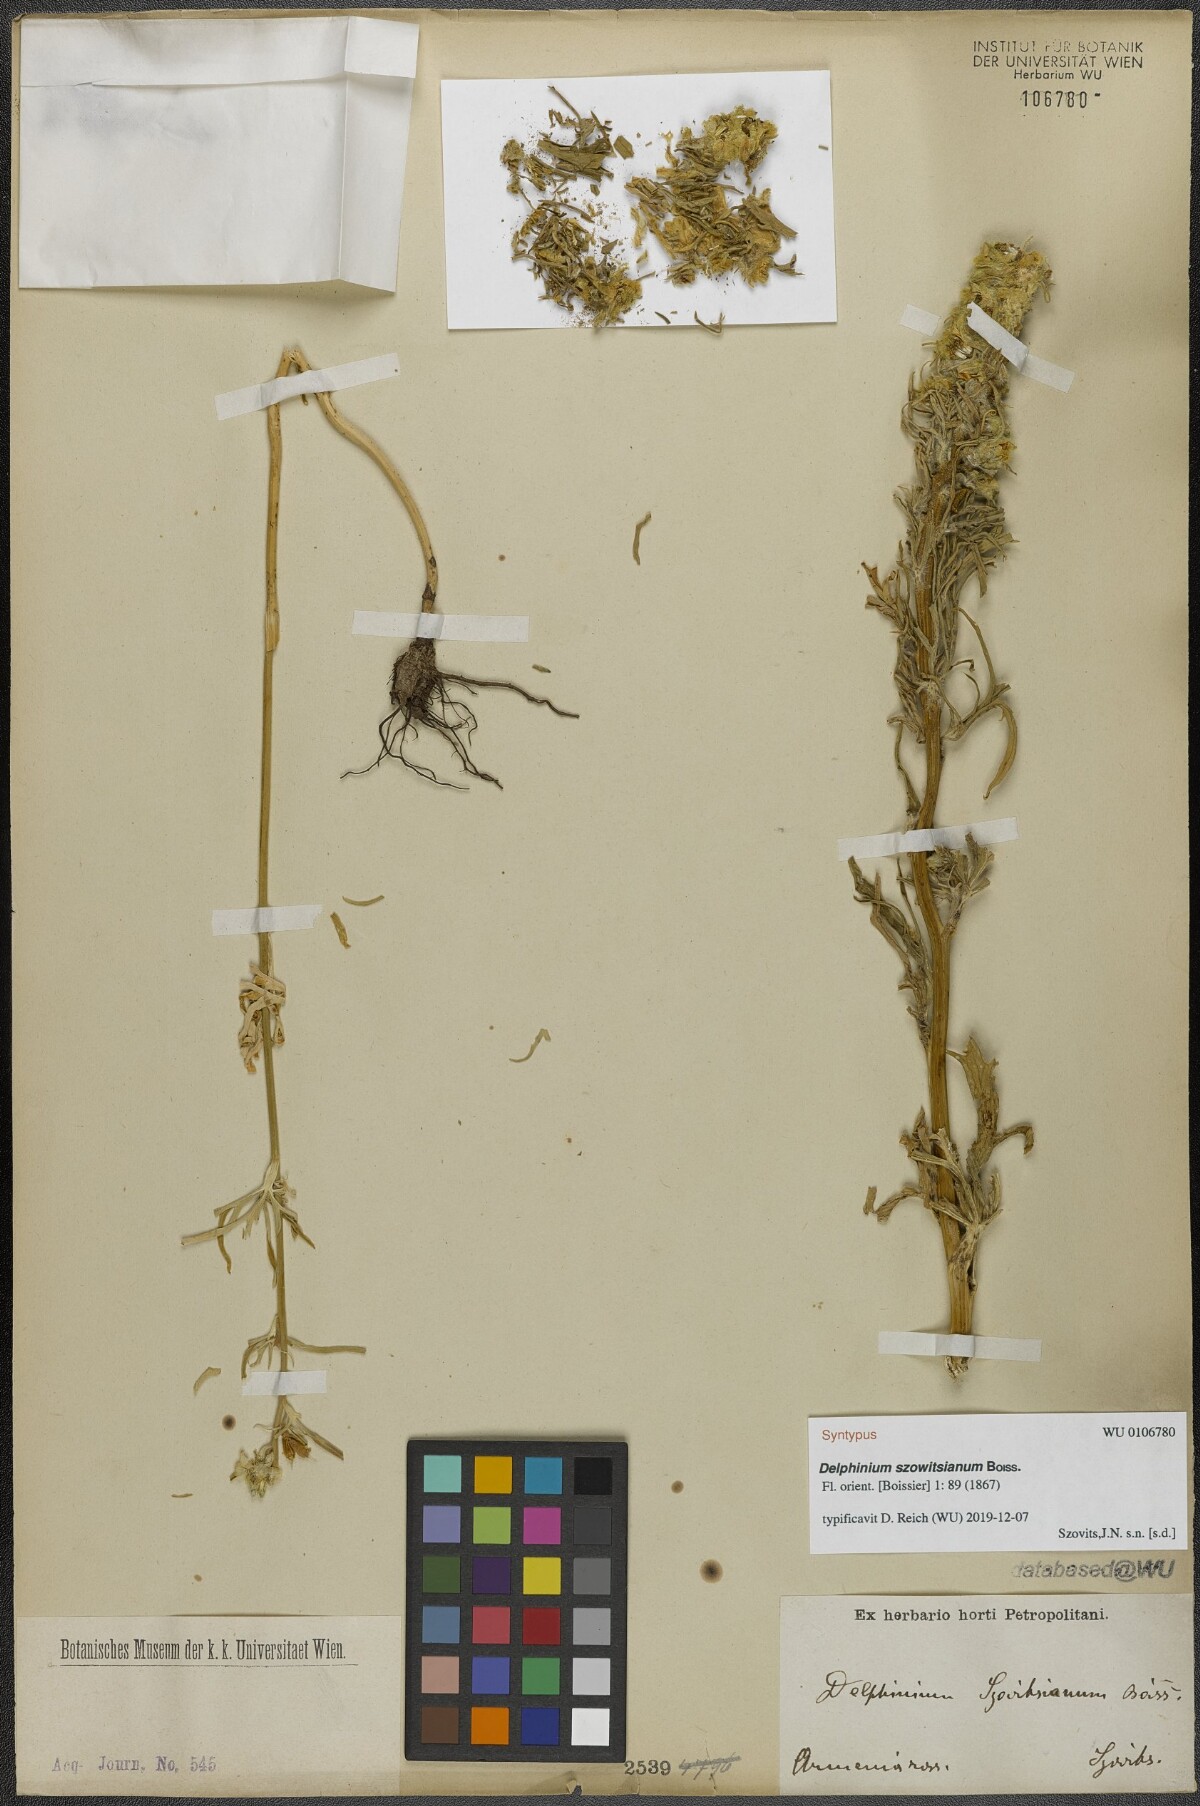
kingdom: Plantae
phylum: Tracheophyta
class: Magnoliopsida
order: Ranunculales
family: Ranunculaceae
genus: Delphinium
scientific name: Delphinium szowitsianum
